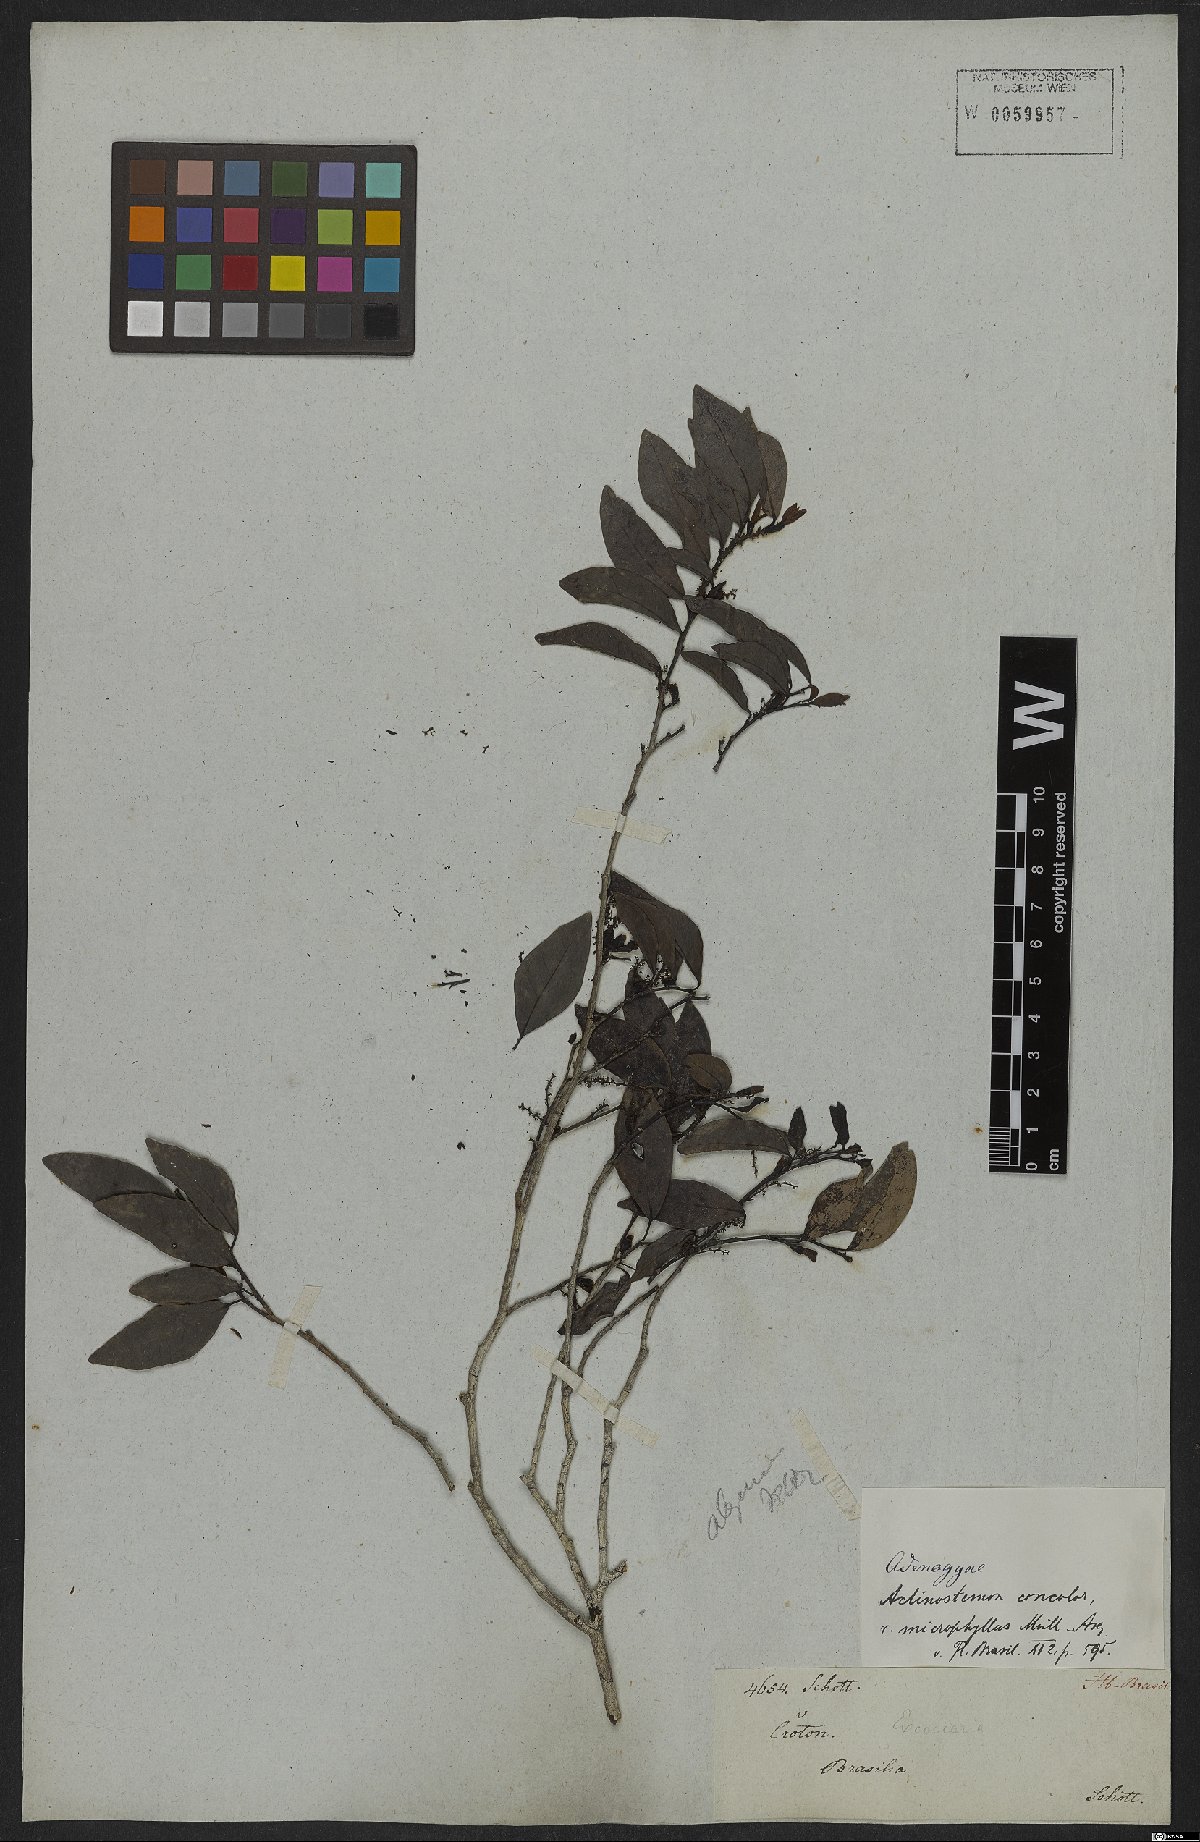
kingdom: Plantae
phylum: Tracheophyta
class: Magnoliopsida
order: Malpighiales
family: Euphorbiaceae
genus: Actinostemon
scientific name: Actinostemon concolor
